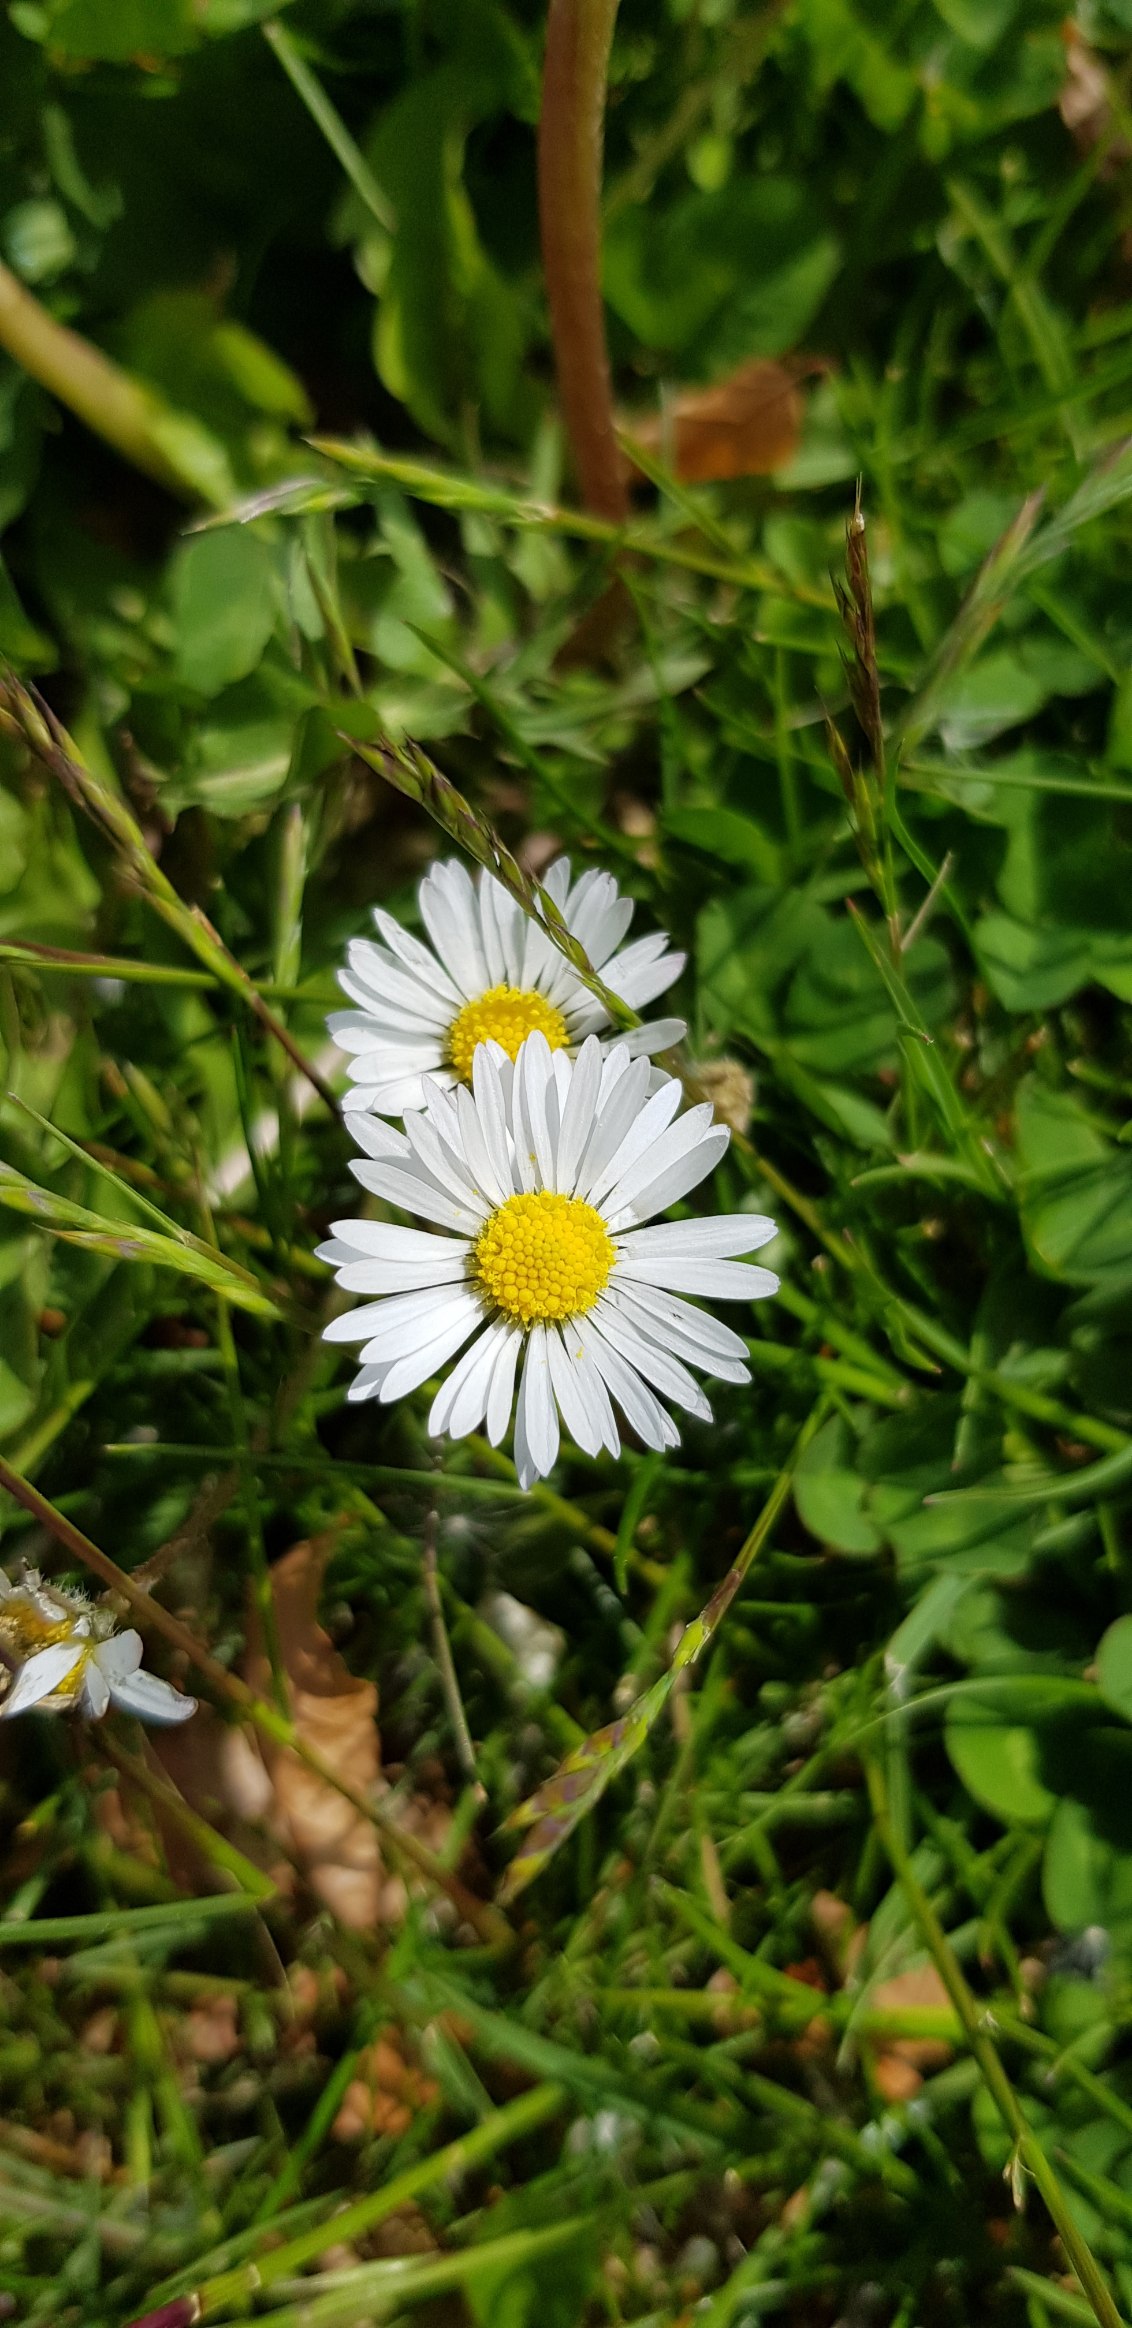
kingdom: Plantae
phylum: Tracheophyta
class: Magnoliopsida
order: Asterales
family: Asteraceae
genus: Bellis
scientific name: Bellis perennis
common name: Tusindfryd
